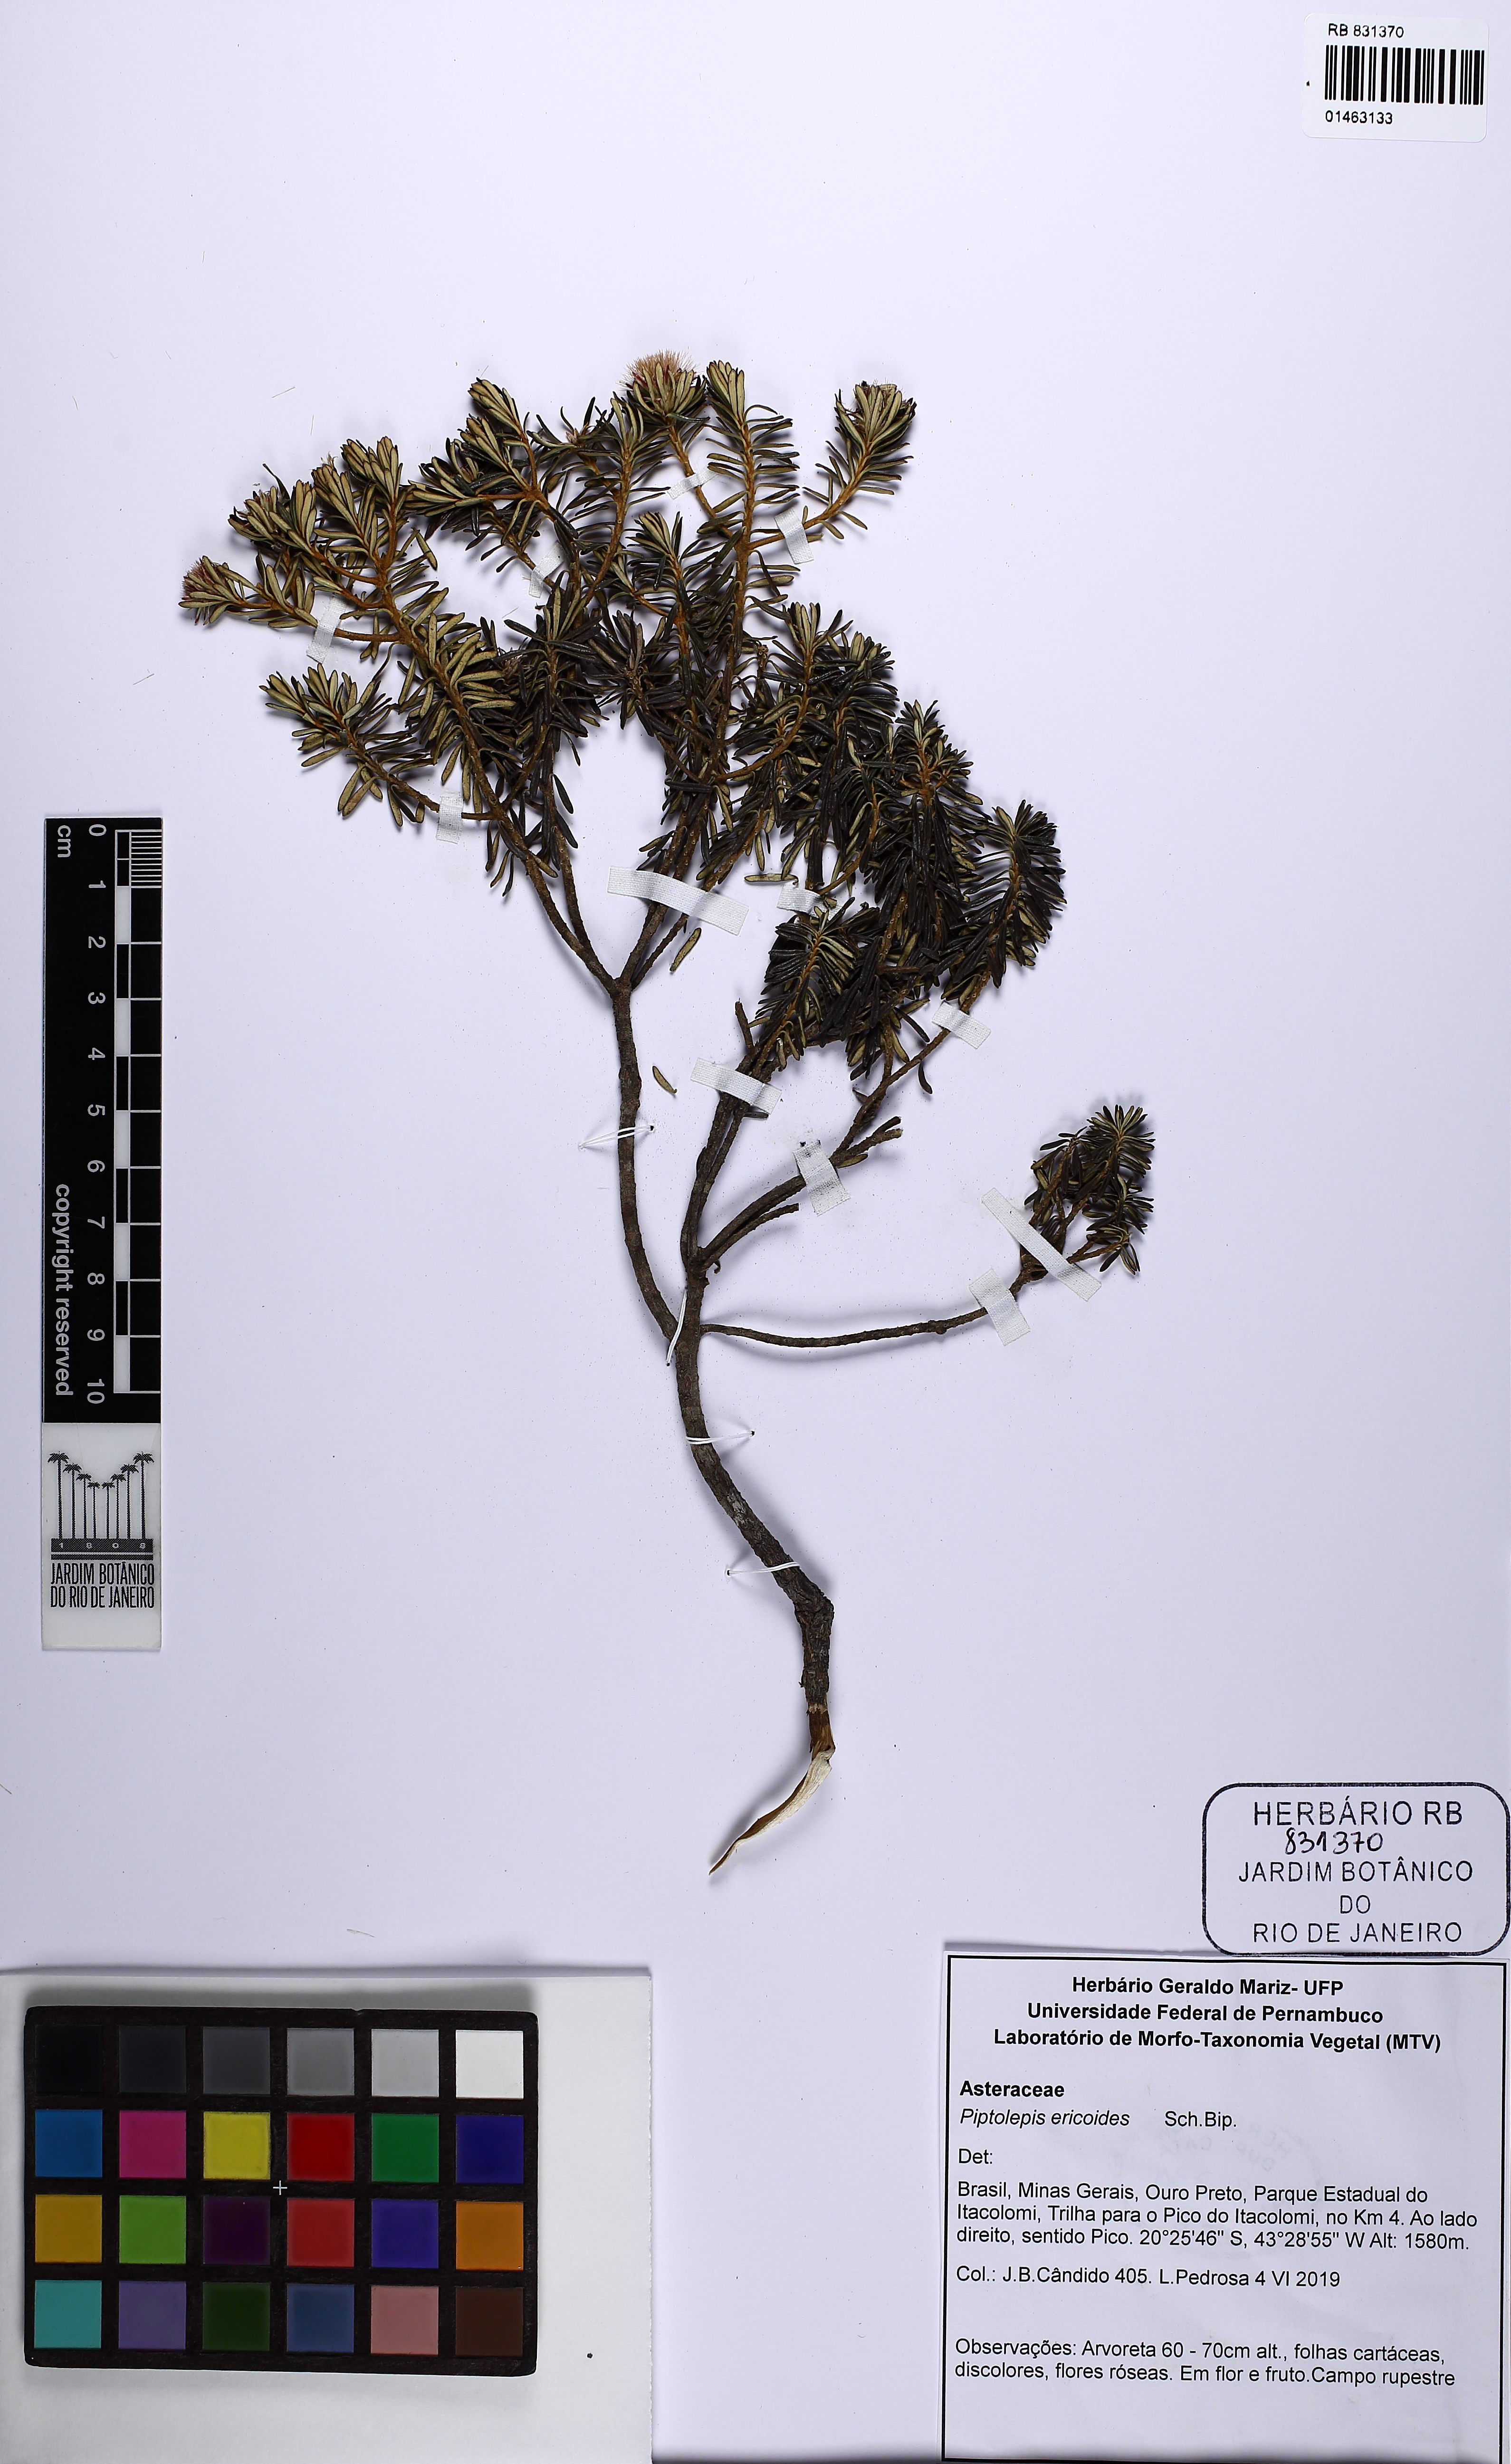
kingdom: Plantae
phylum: Tracheophyta
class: Magnoliopsida
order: Asterales
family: Asteraceae
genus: Piptolepis
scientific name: Piptolepis ericoides
